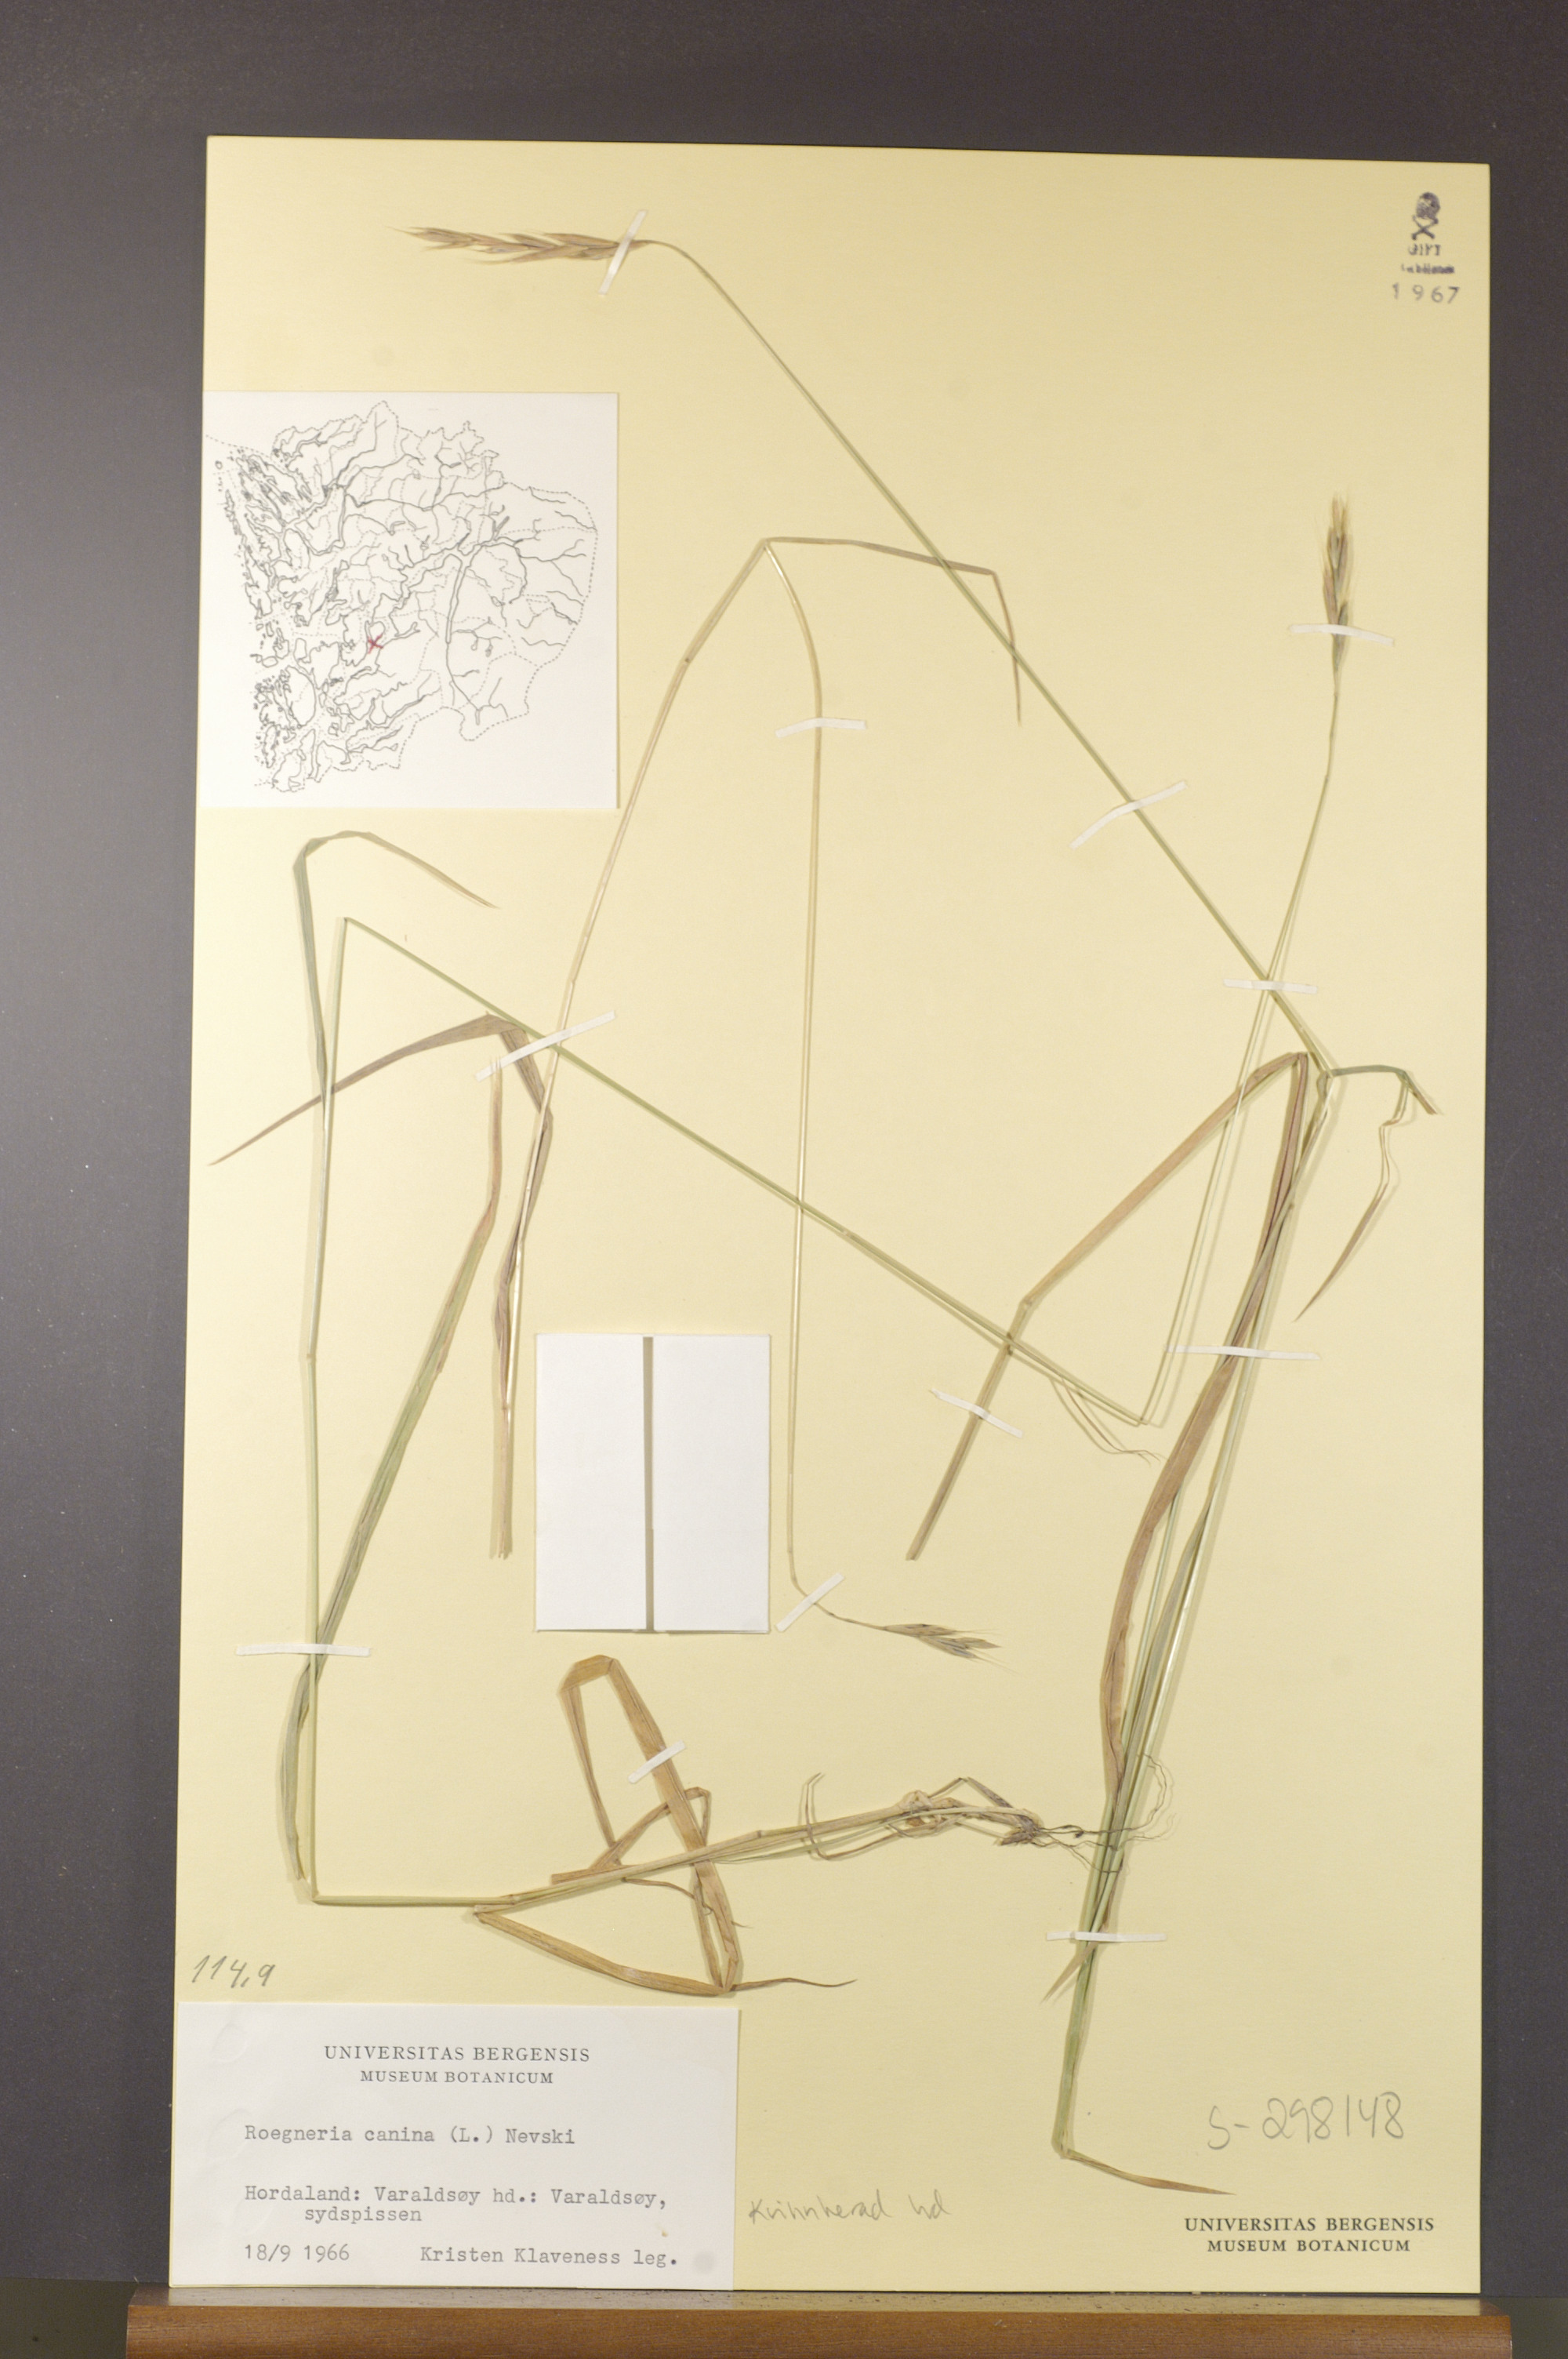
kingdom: Plantae
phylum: Tracheophyta
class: Liliopsida
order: Poales
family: Poaceae
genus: Elymus
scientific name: Elymus caninus
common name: Bearded couch
